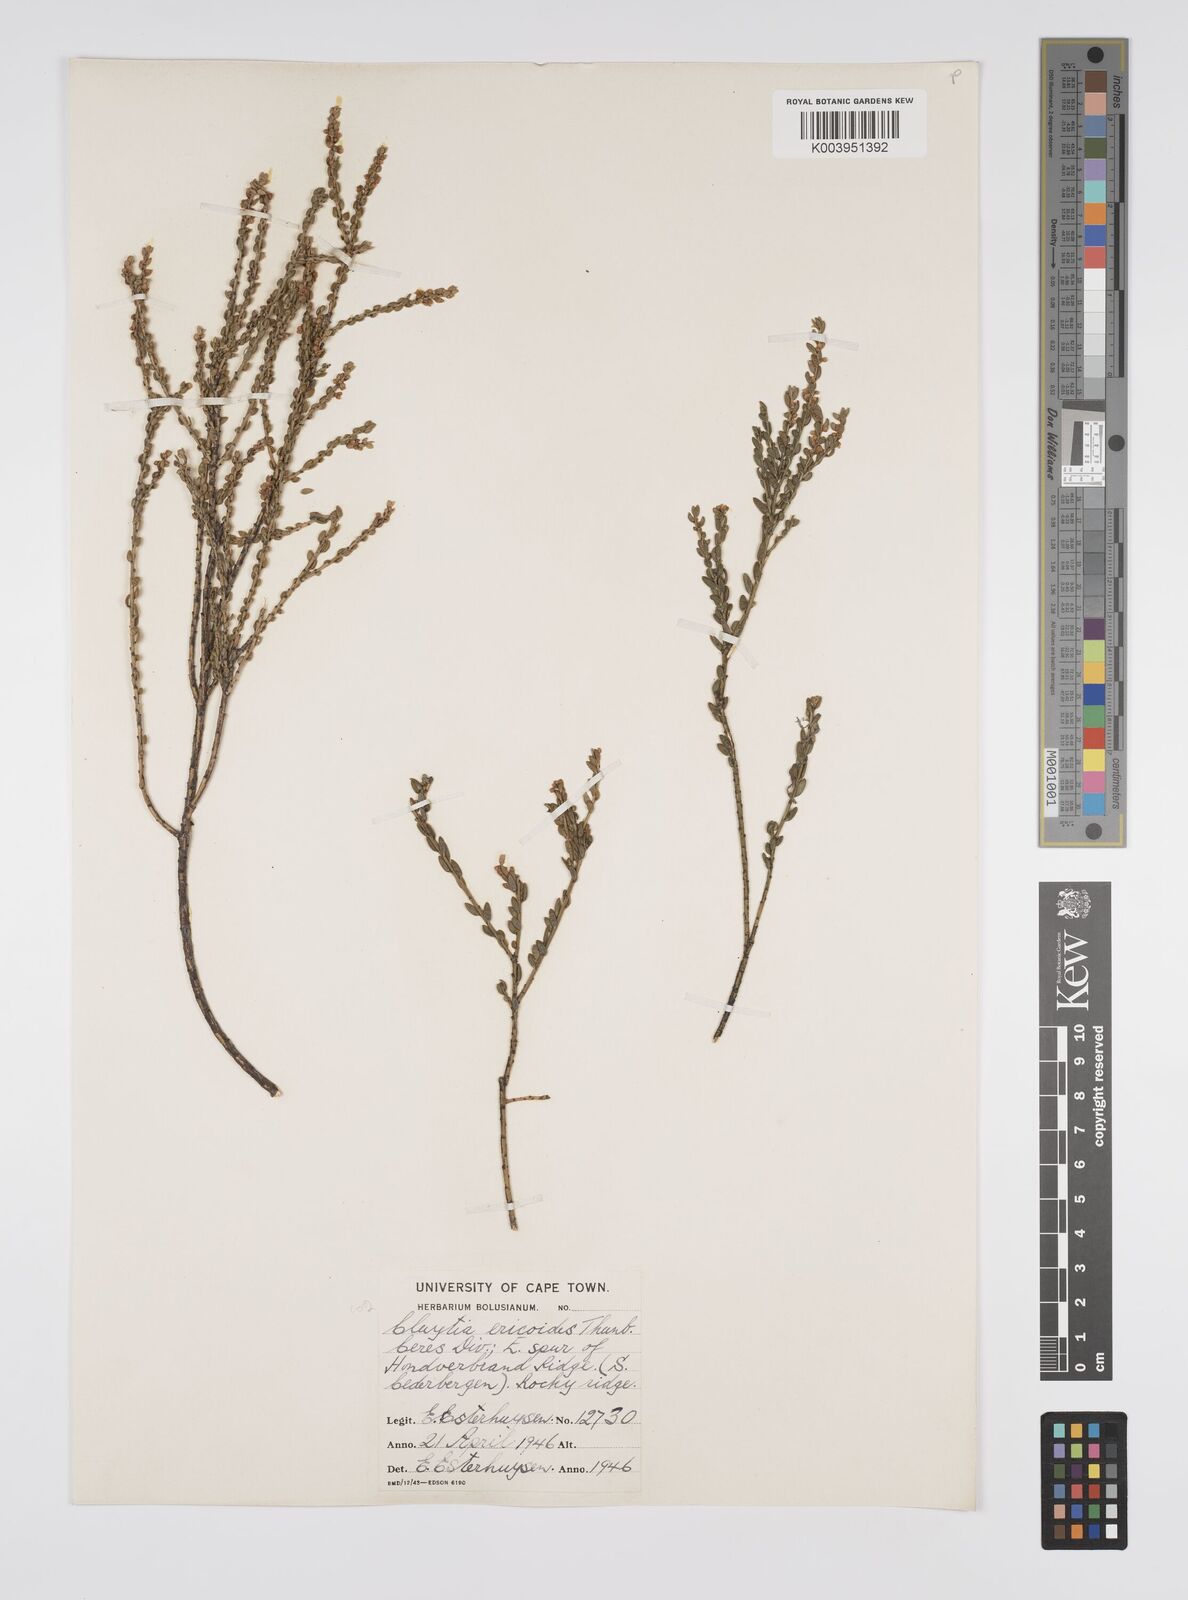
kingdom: Plantae
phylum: Tracheophyta
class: Magnoliopsida
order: Malpighiales
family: Peraceae
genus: Clutia
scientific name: Clutia
